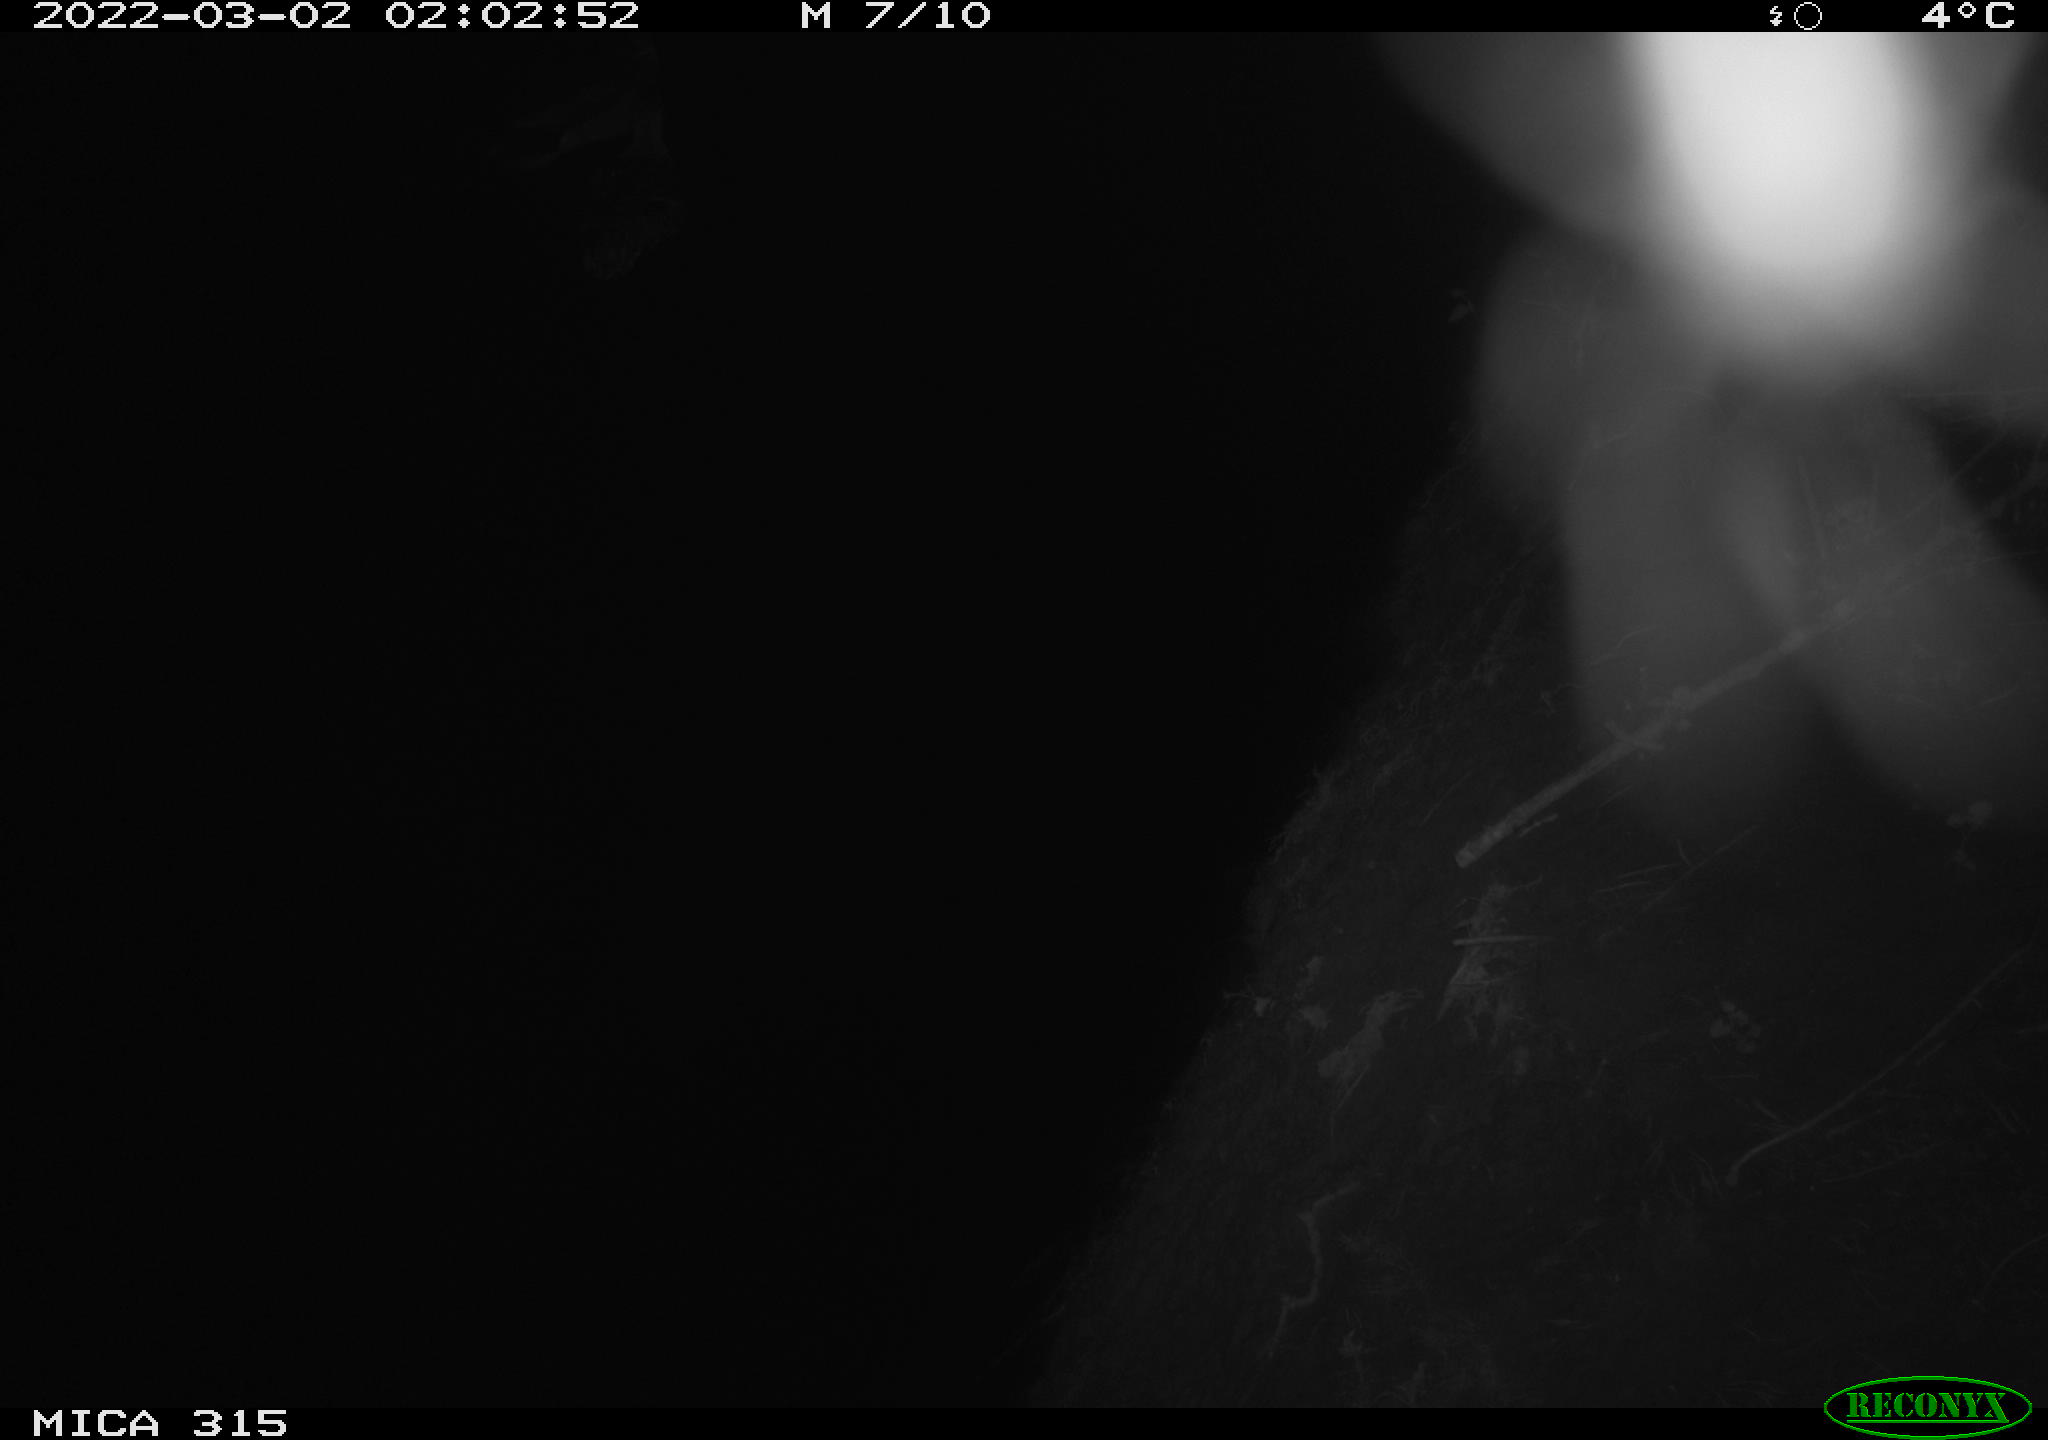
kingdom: Animalia
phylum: Chordata
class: Aves
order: Anseriformes
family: Anatidae
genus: Anas
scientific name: Anas platyrhynchos
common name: Mallard
